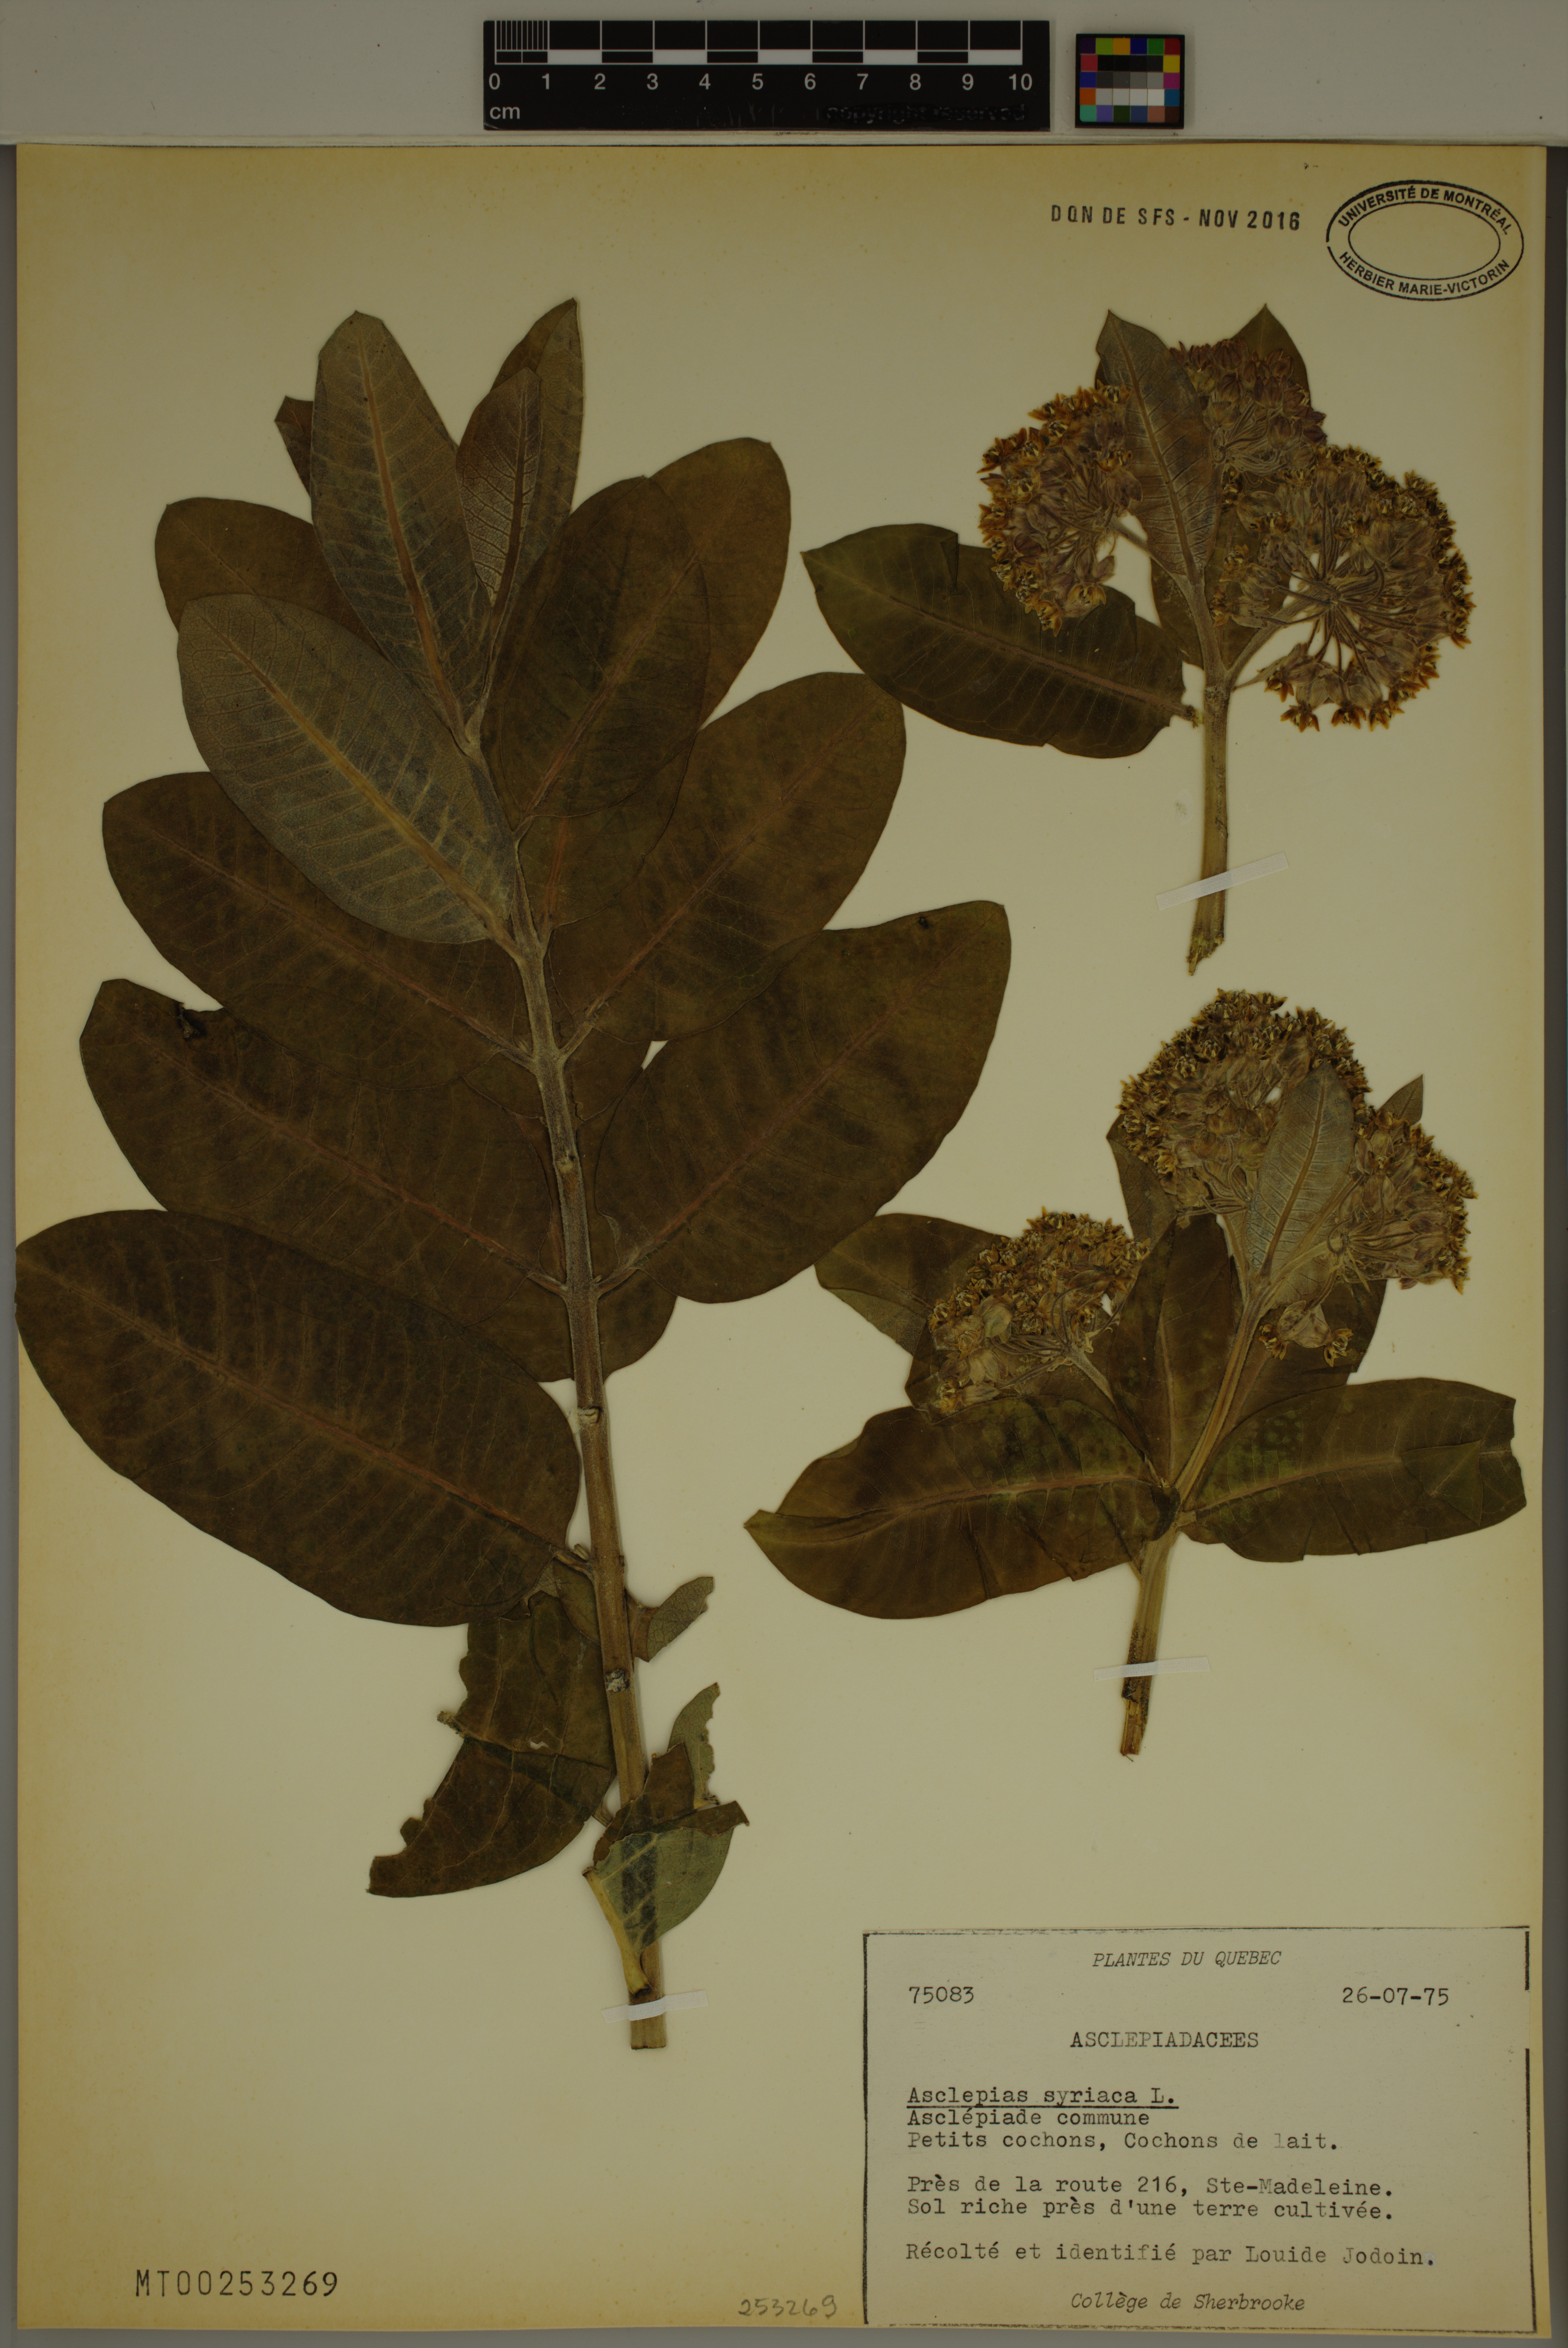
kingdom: Plantae
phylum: Tracheophyta
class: Magnoliopsida
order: Gentianales
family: Apocynaceae
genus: Asclepias
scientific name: Asclepias syriaca
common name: Common milkweed
